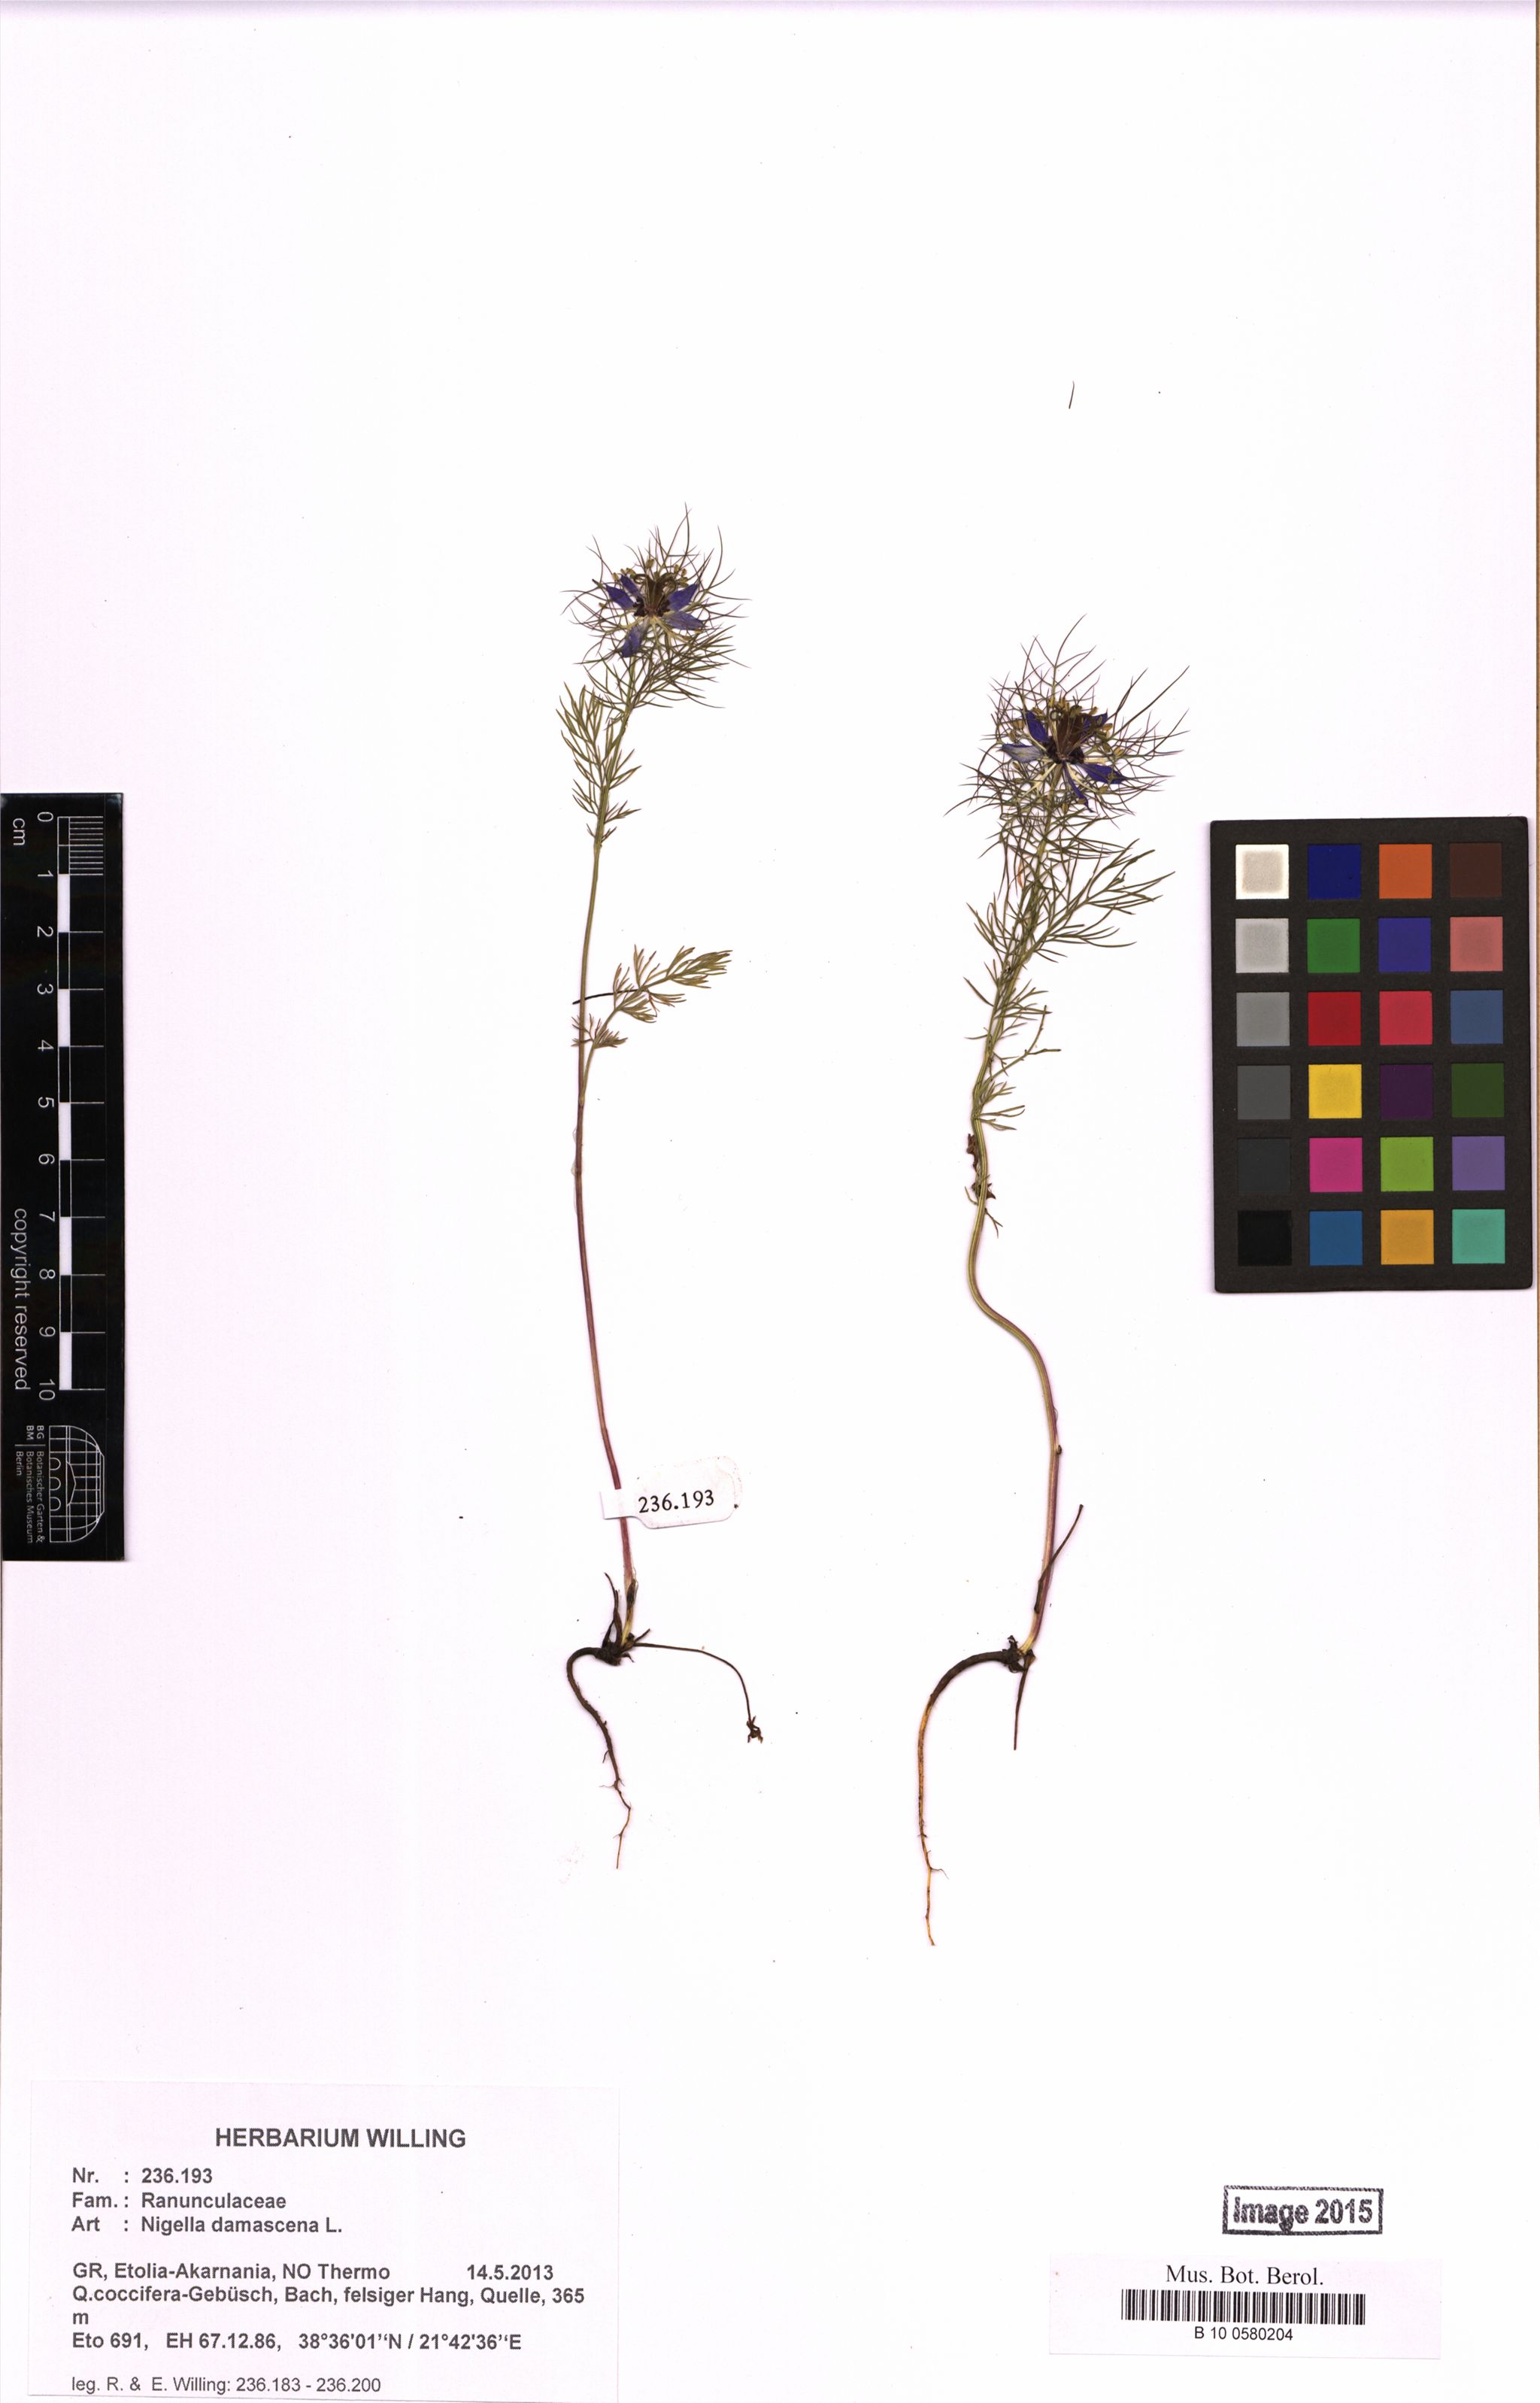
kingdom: Plantae
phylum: Tracheophyta
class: Magnoliopsida
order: Ranunculales
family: Ranunculaceae
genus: Nigella
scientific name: Nigella damascena
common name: Love-in-a-mist
